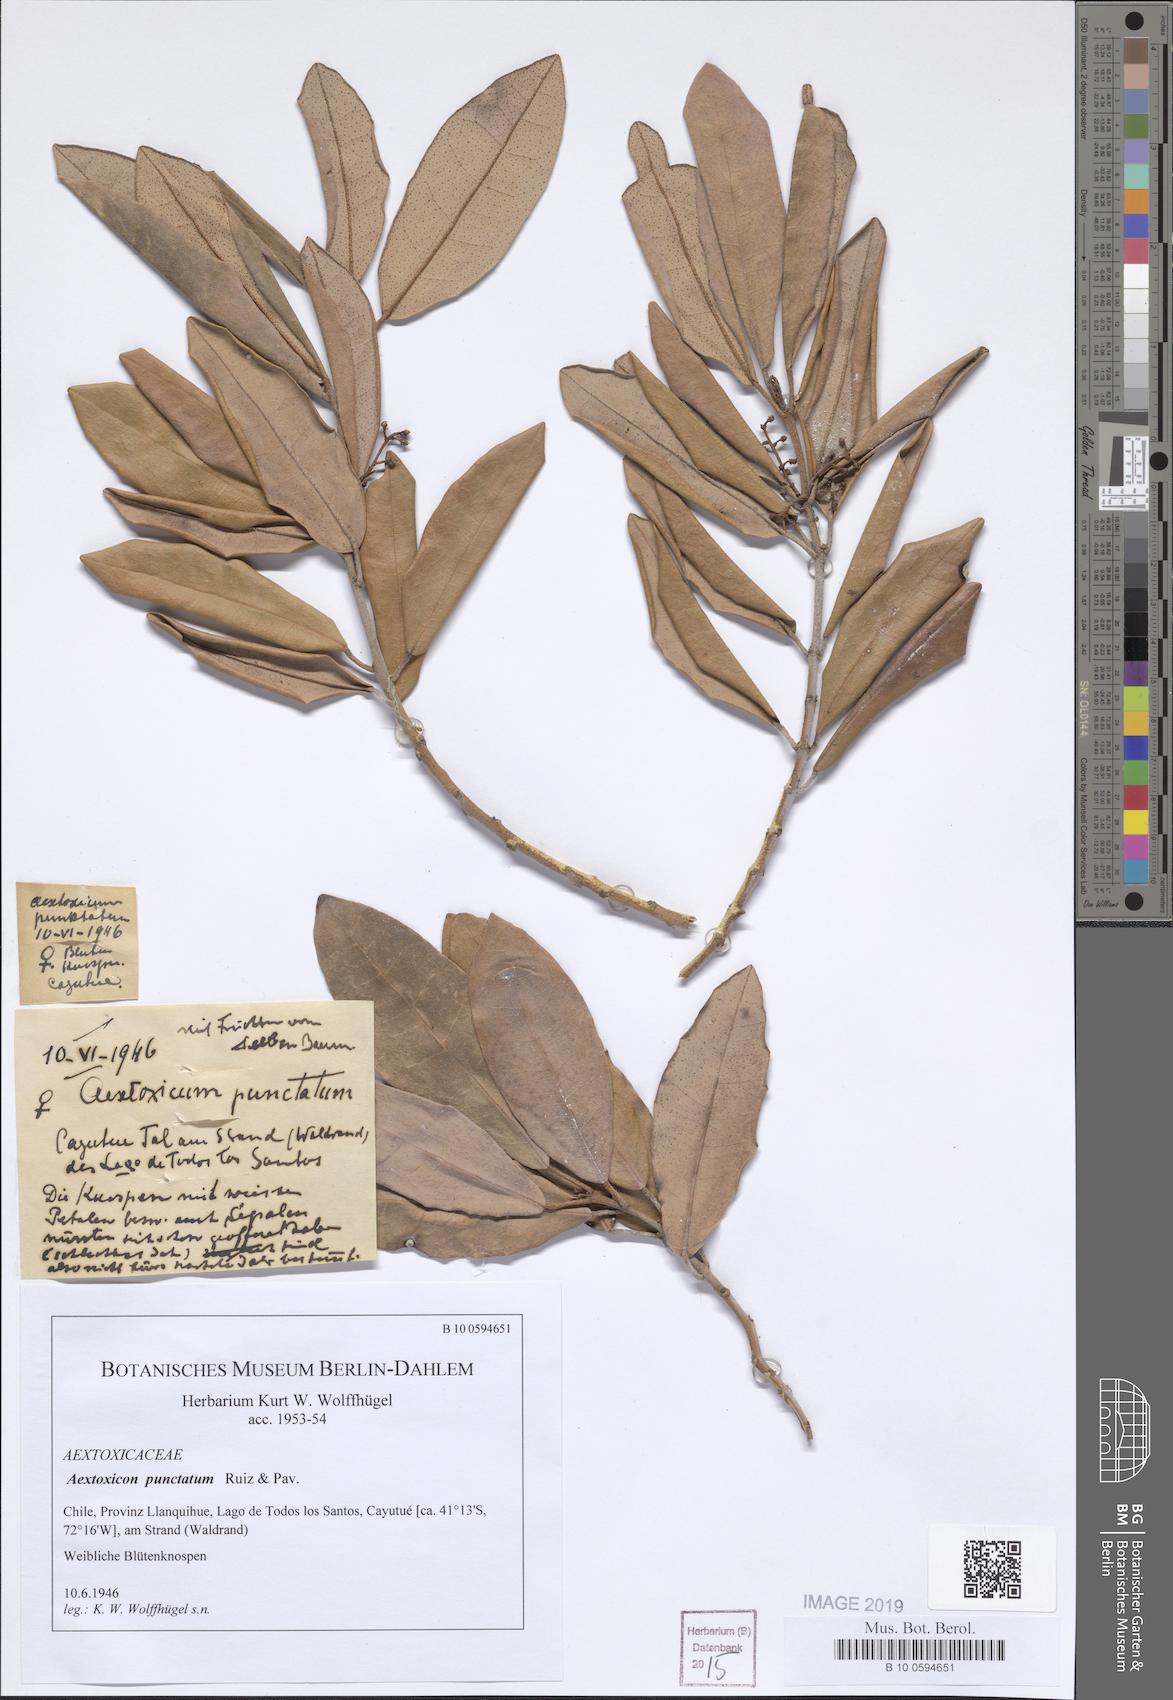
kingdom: Plantae
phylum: Tracheophyta
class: Magnoliopsida
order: Berberidopsidales
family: Aextoxicaceae
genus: Aextoxicon
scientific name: Aextoxicon punctatum
